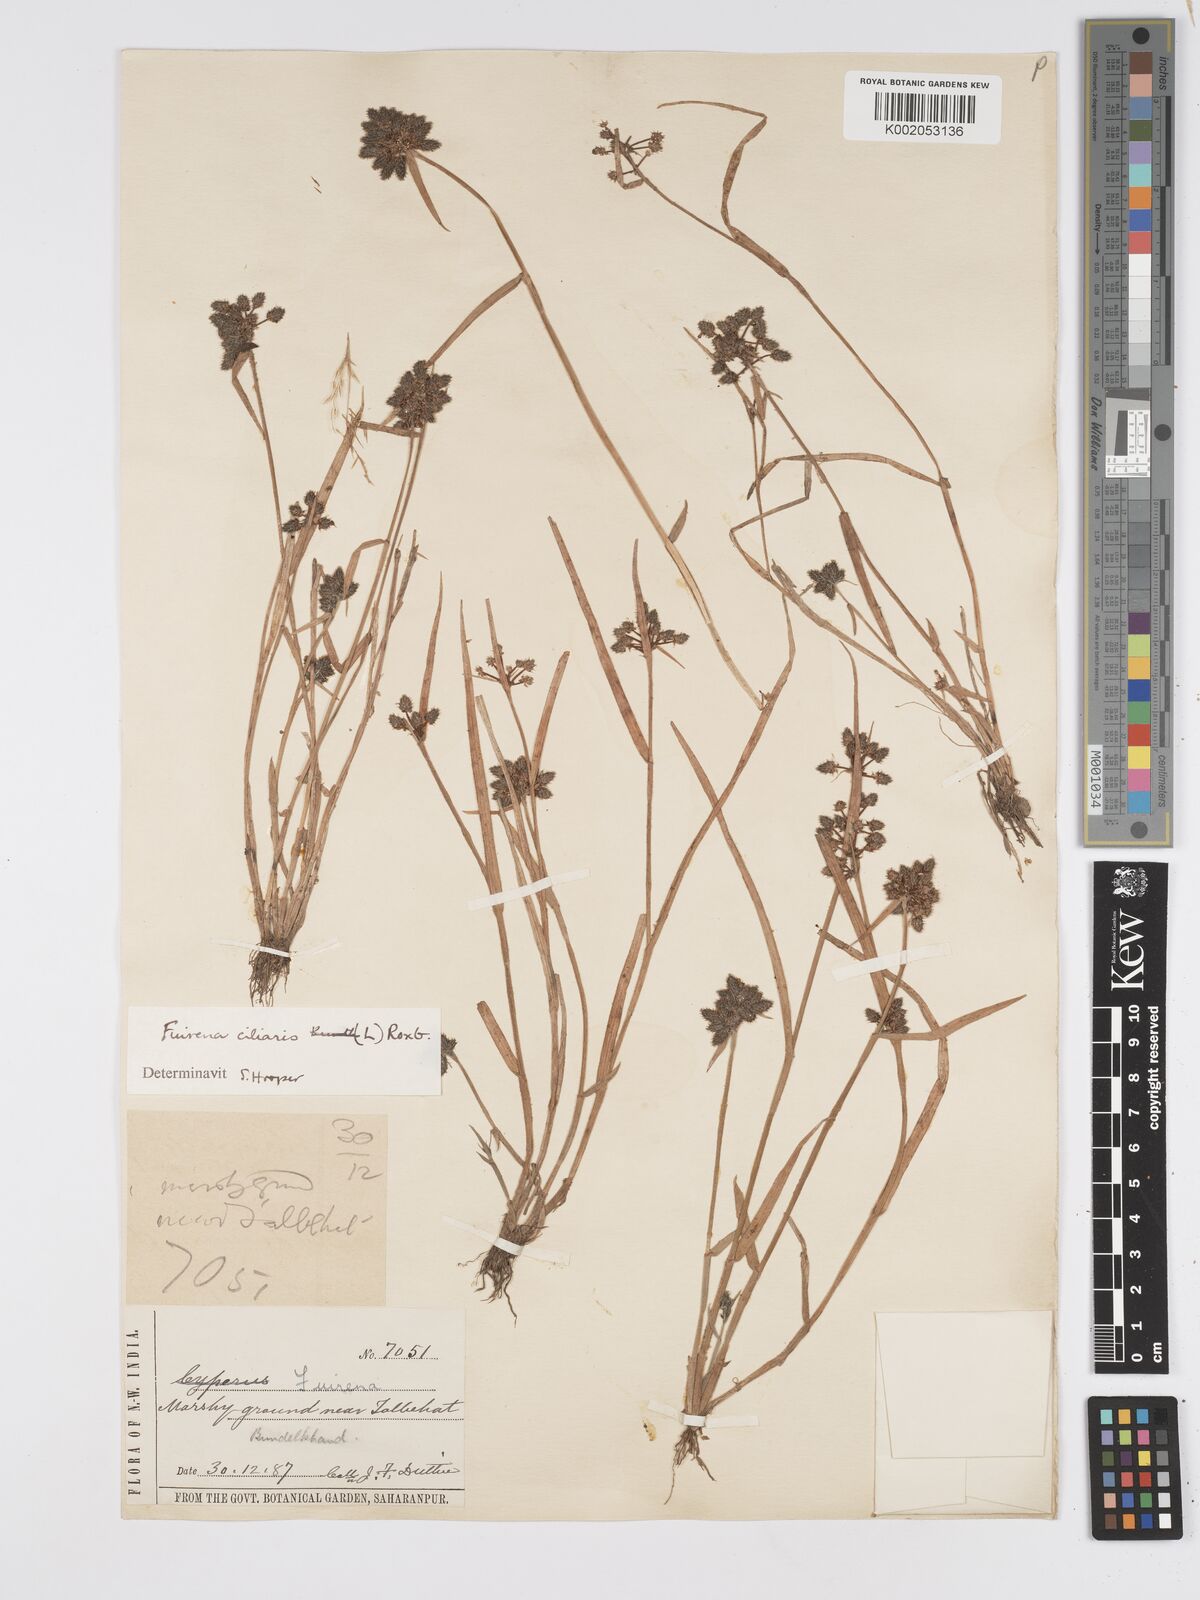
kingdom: Plantae
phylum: Tracheophyta
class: Liliopsida
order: Poales
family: Cyperaceae
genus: Fuirena
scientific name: Fuirena ciliaris
